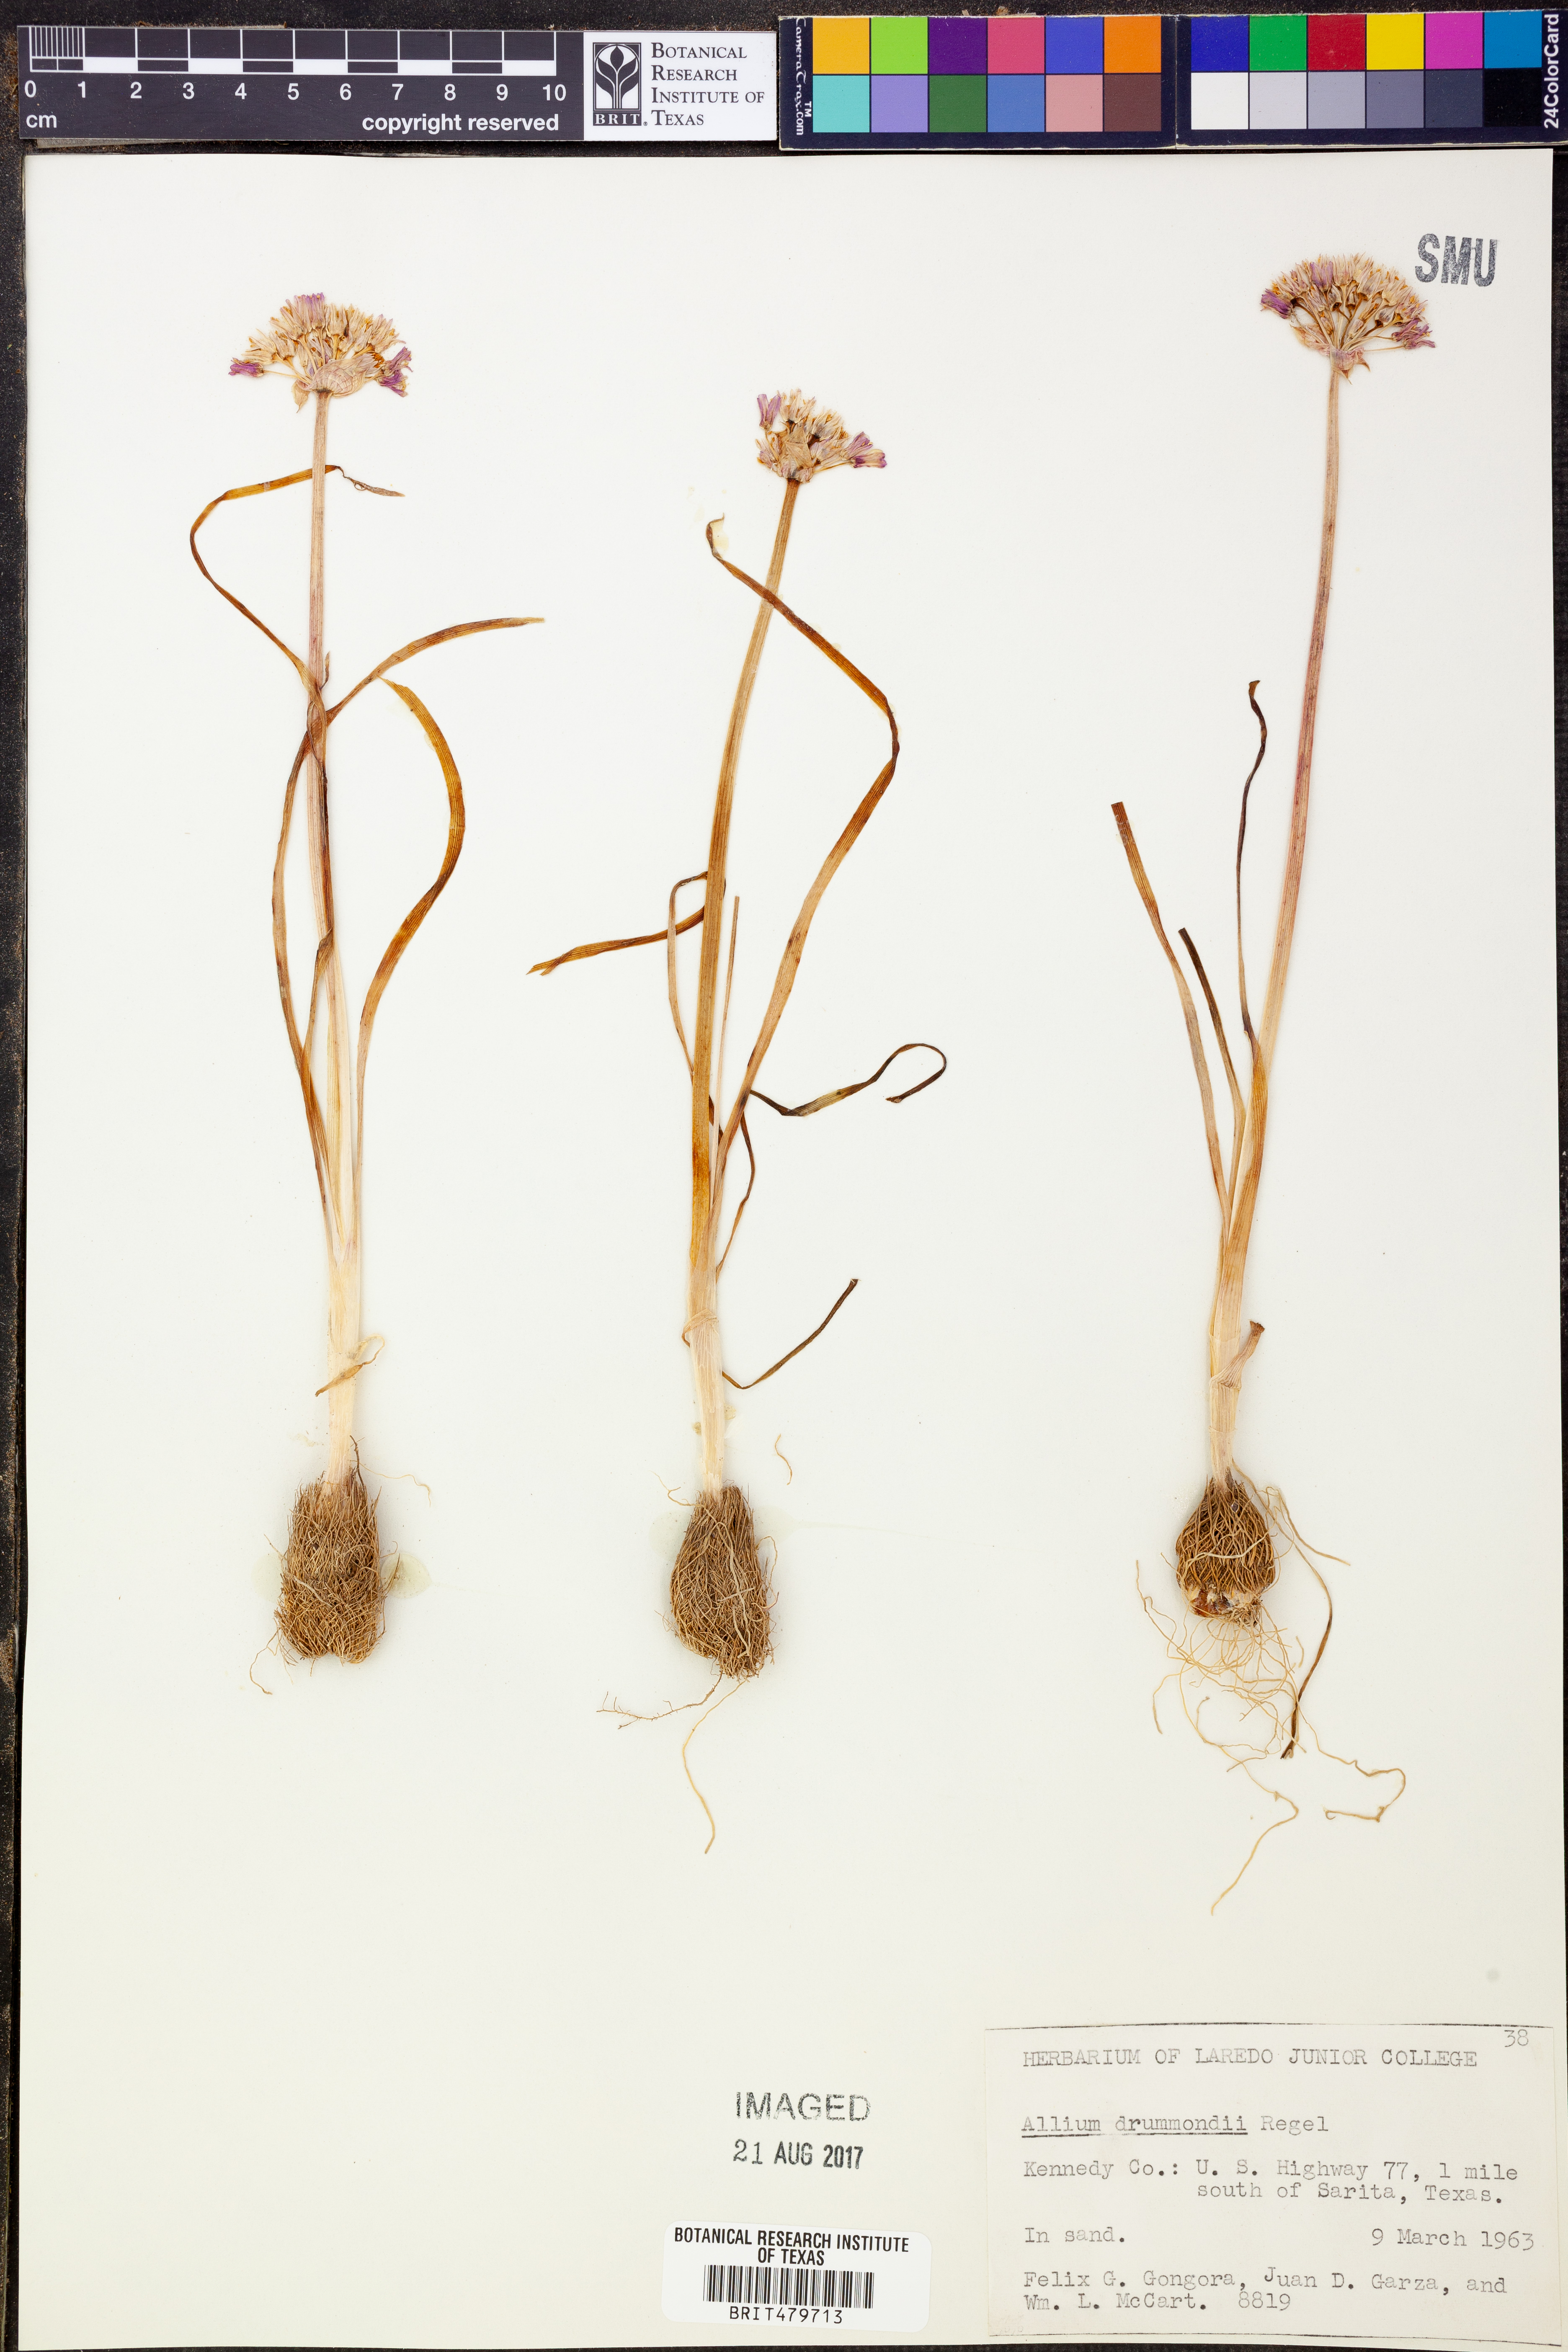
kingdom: Plantae
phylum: Tracheophyta
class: Liliopsida
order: Asparagales
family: Amaryllidaceae
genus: Allium
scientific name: Allium drummondii
